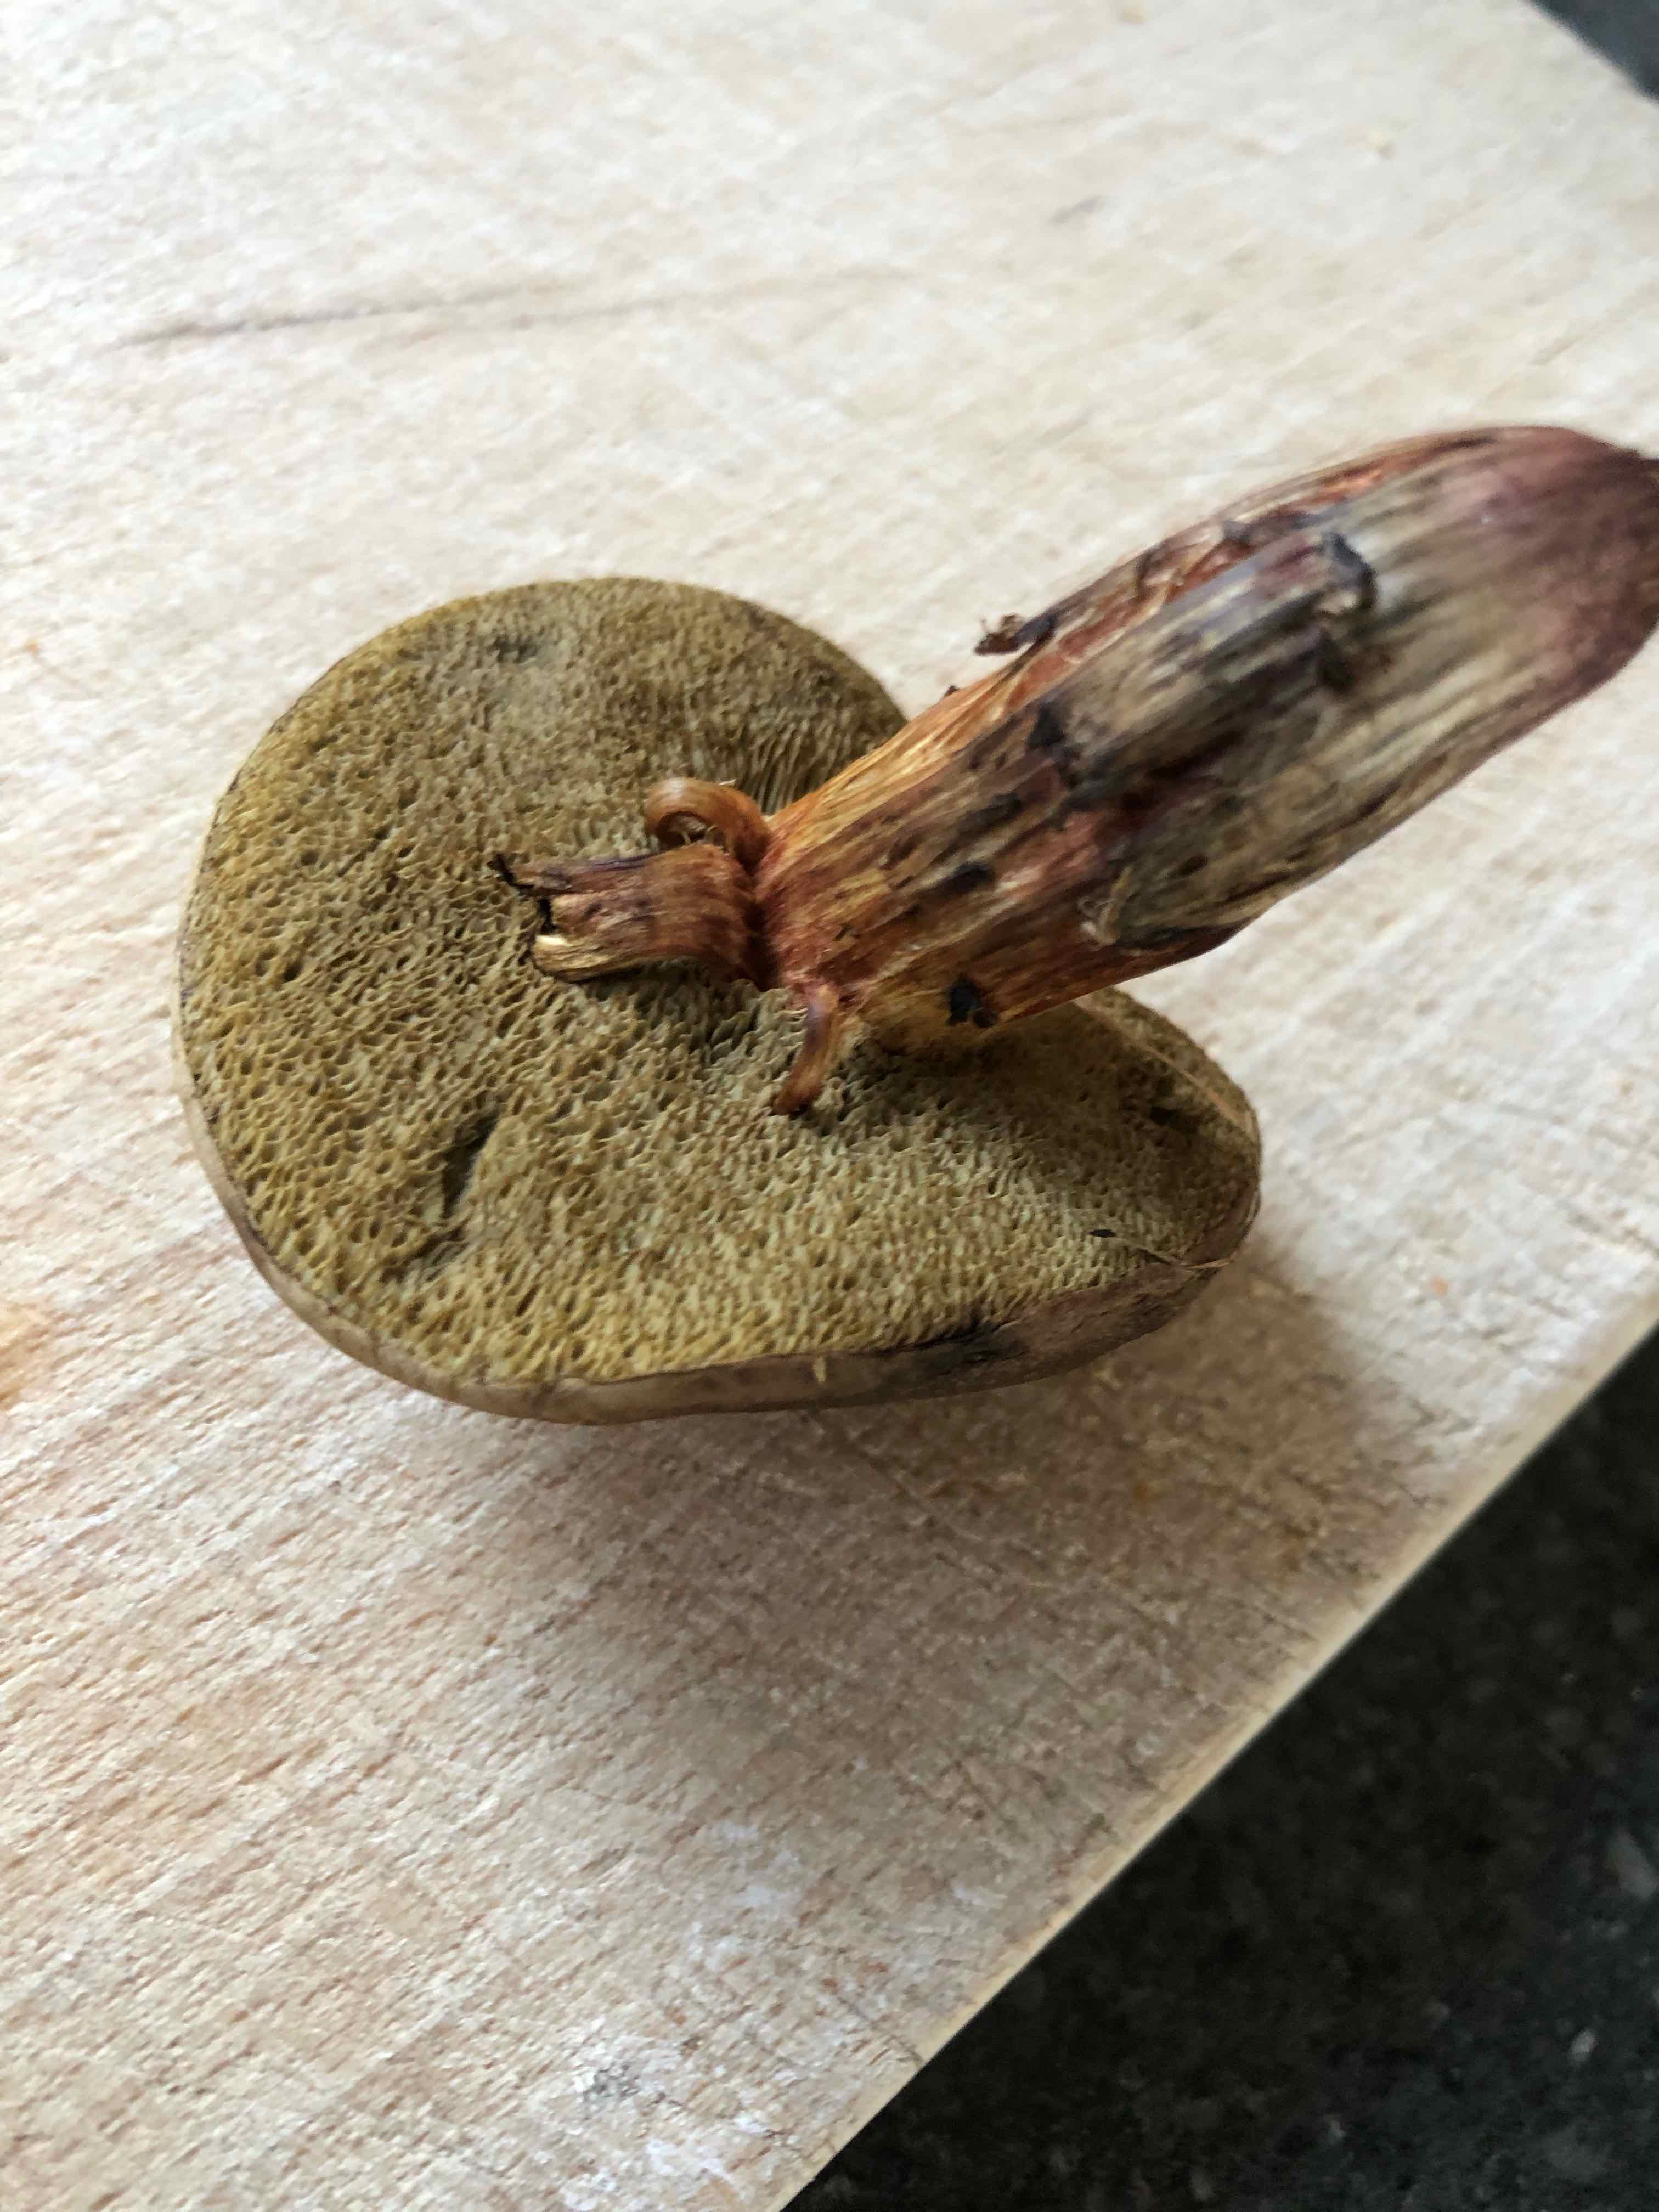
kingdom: Fungi
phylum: Basidiomycota
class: Agaricomycetes
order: Boletales
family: Boletaceae
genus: Xerocomellus
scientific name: Xerocomellus cisalpinus
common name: finsprukken rørhat
